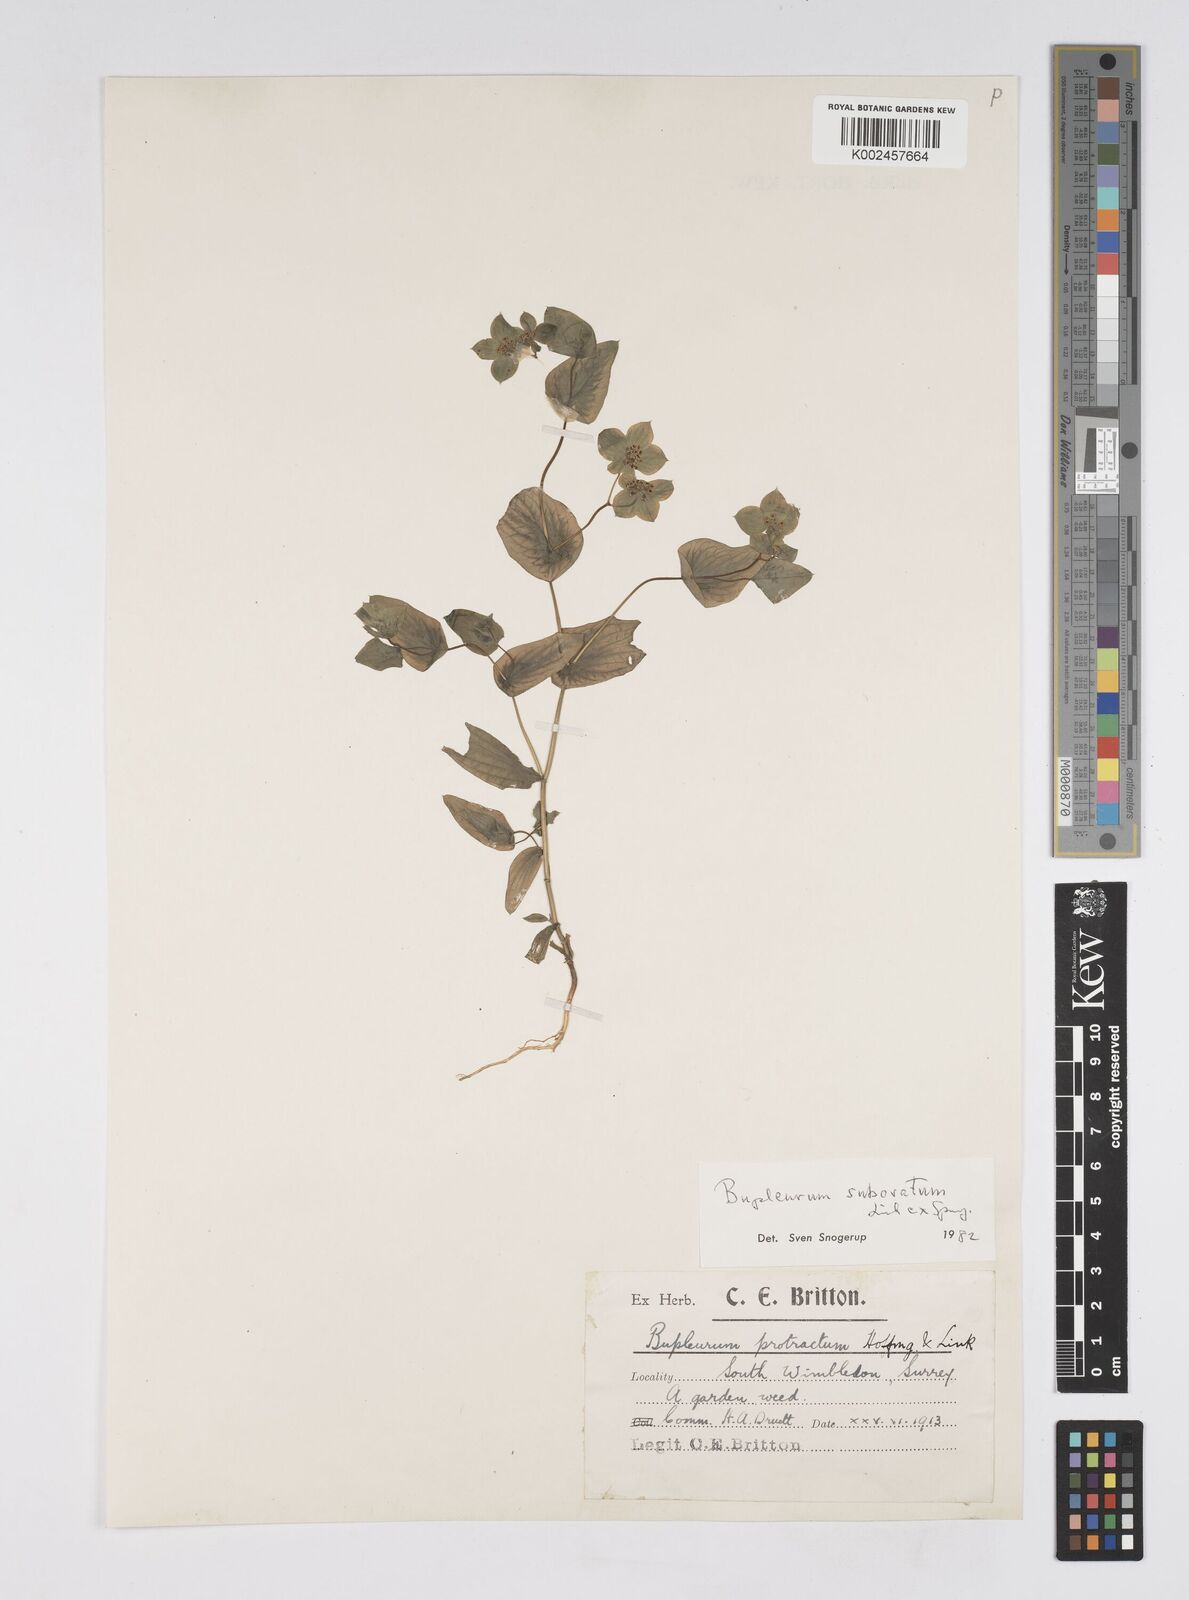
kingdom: Plantae
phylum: Tracheophyta
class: Magnoliopsida
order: Apiales
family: Apiaceae
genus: Bupleurum
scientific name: Bupleurum subovatum
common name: False thorow-wax
